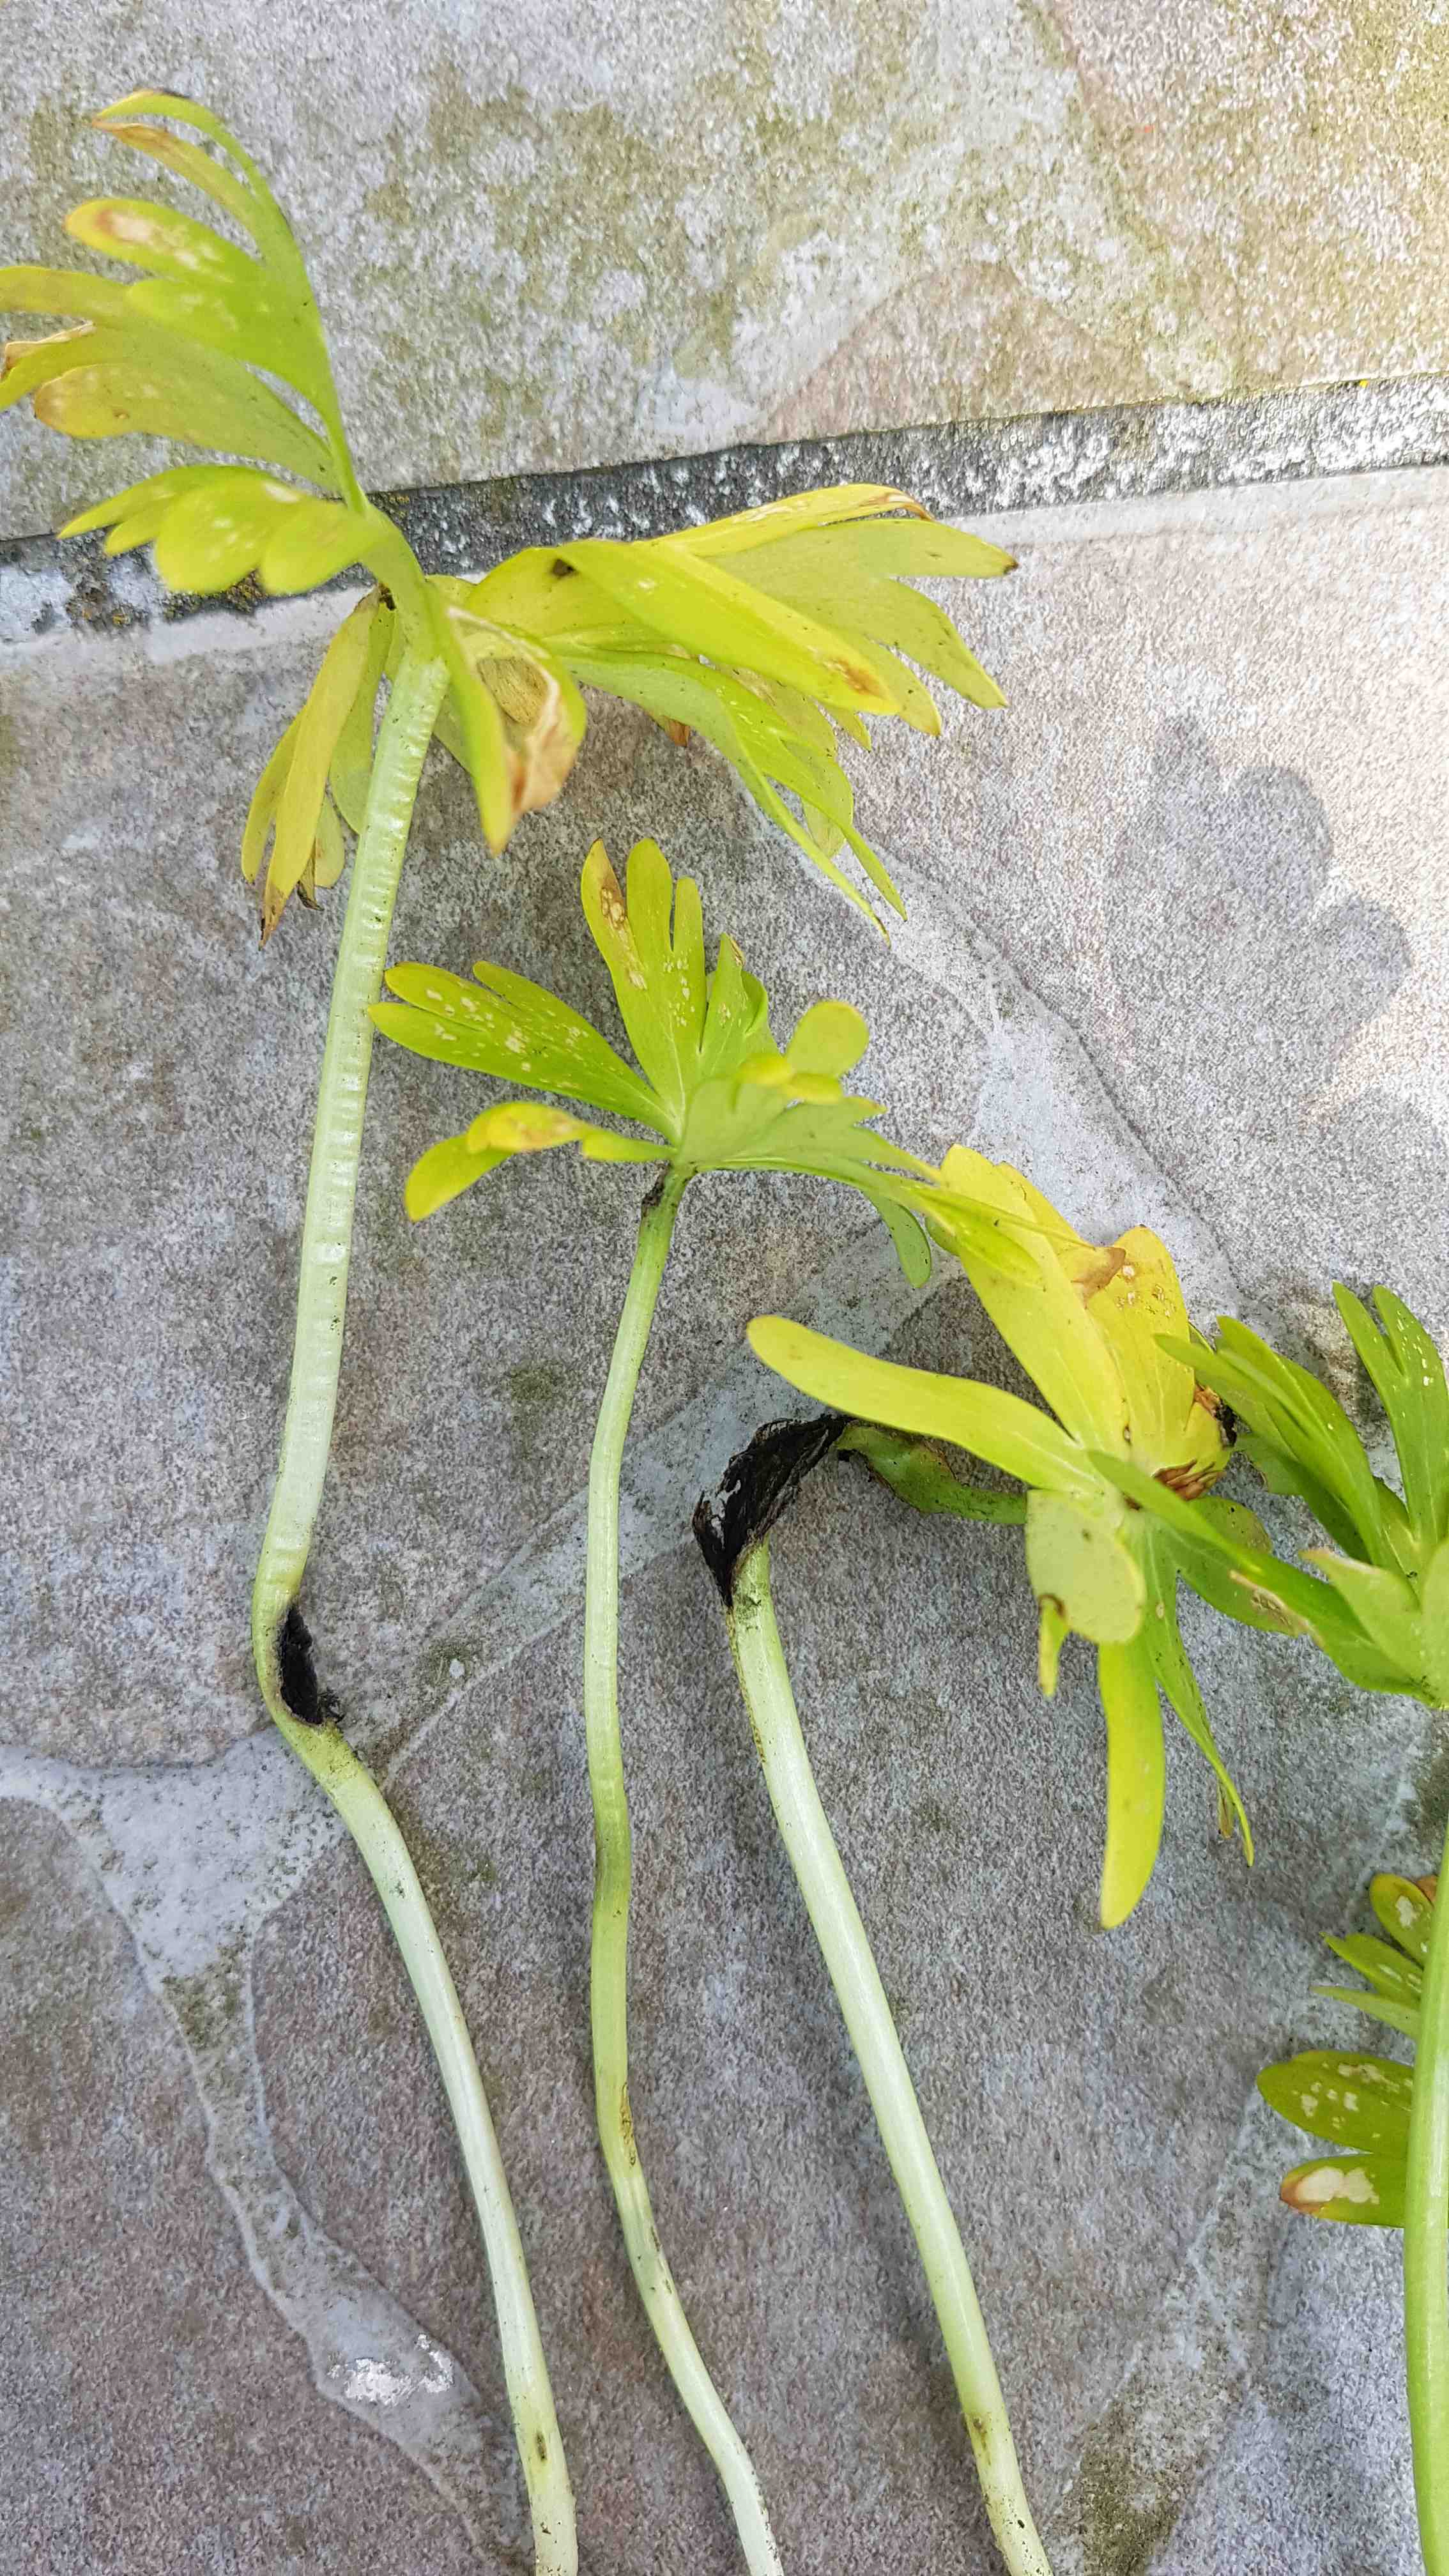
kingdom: Fungi
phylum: Basidiomycota
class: Ustilaginomycetes
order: Urocystidales
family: Urocystidaceae
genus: Urocystis
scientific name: Urocystis eranthidis
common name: erantis-brand
